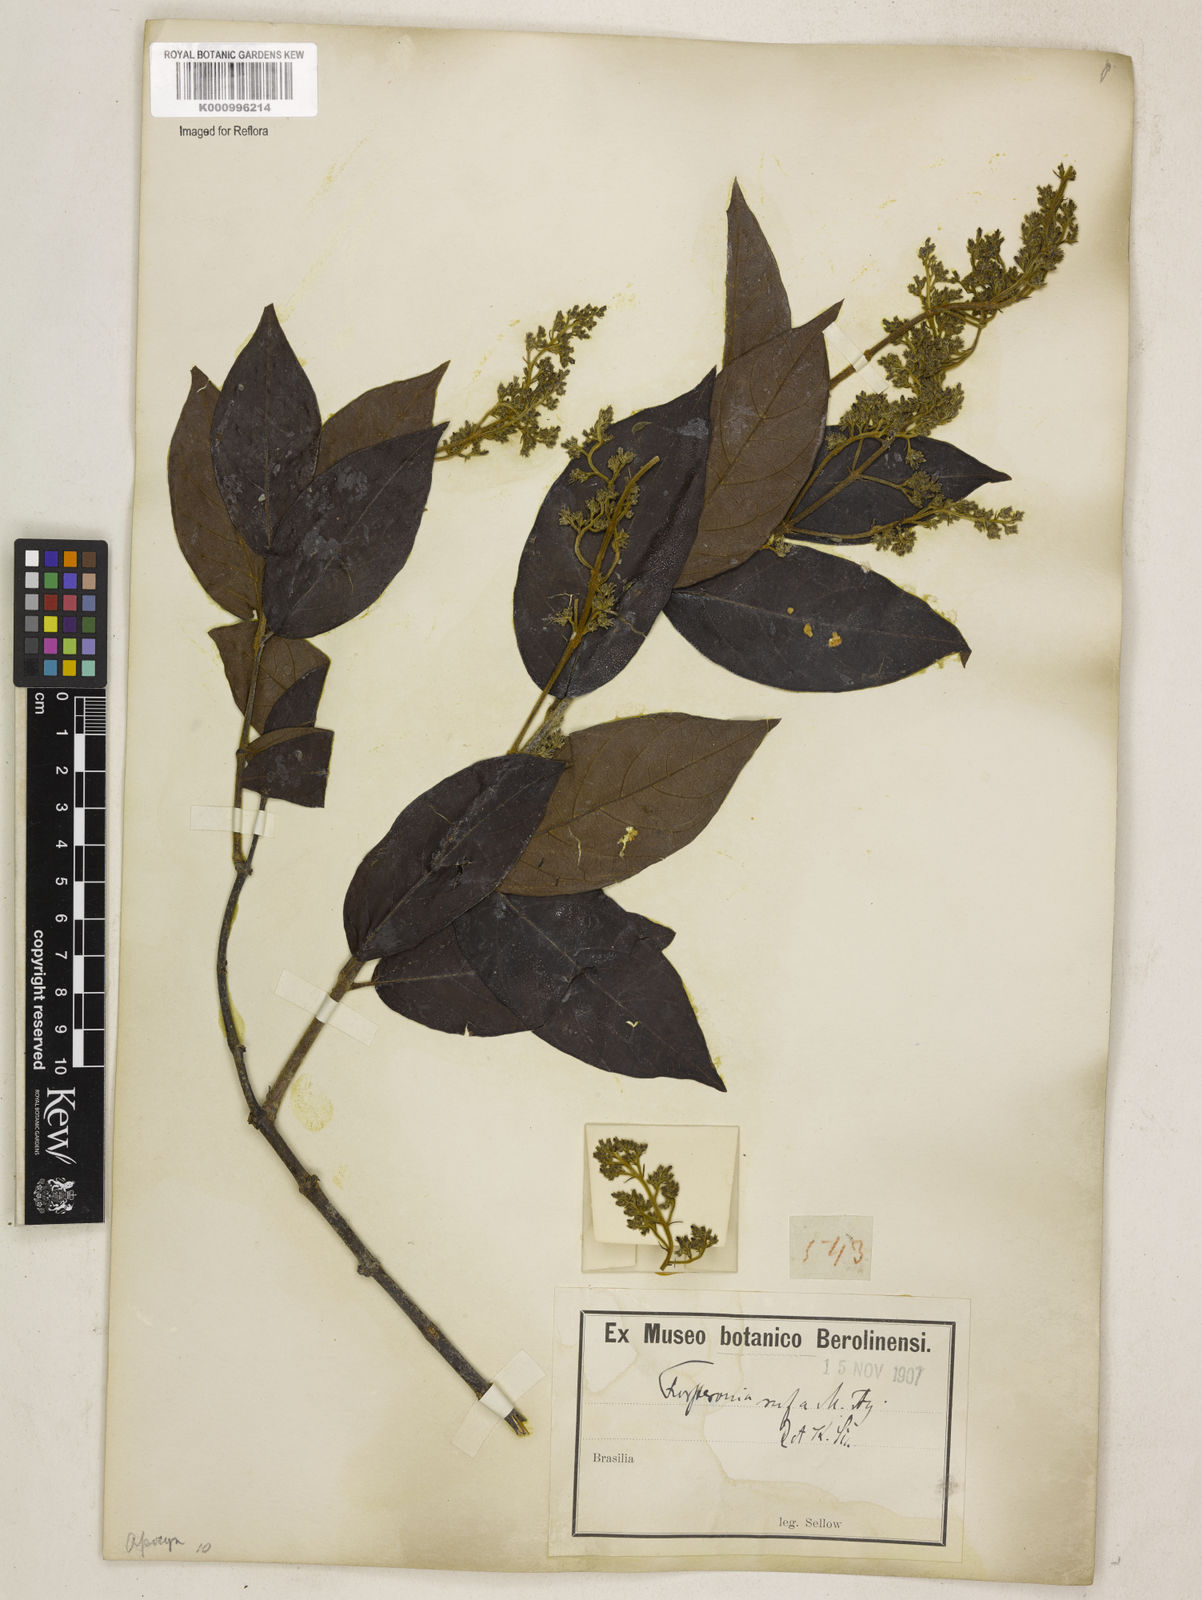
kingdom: Plantae
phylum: Tracheophyta
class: Magnoliopsida
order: Gentianales
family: Apocynaceae
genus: Forsteronia
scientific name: Forsteronia
